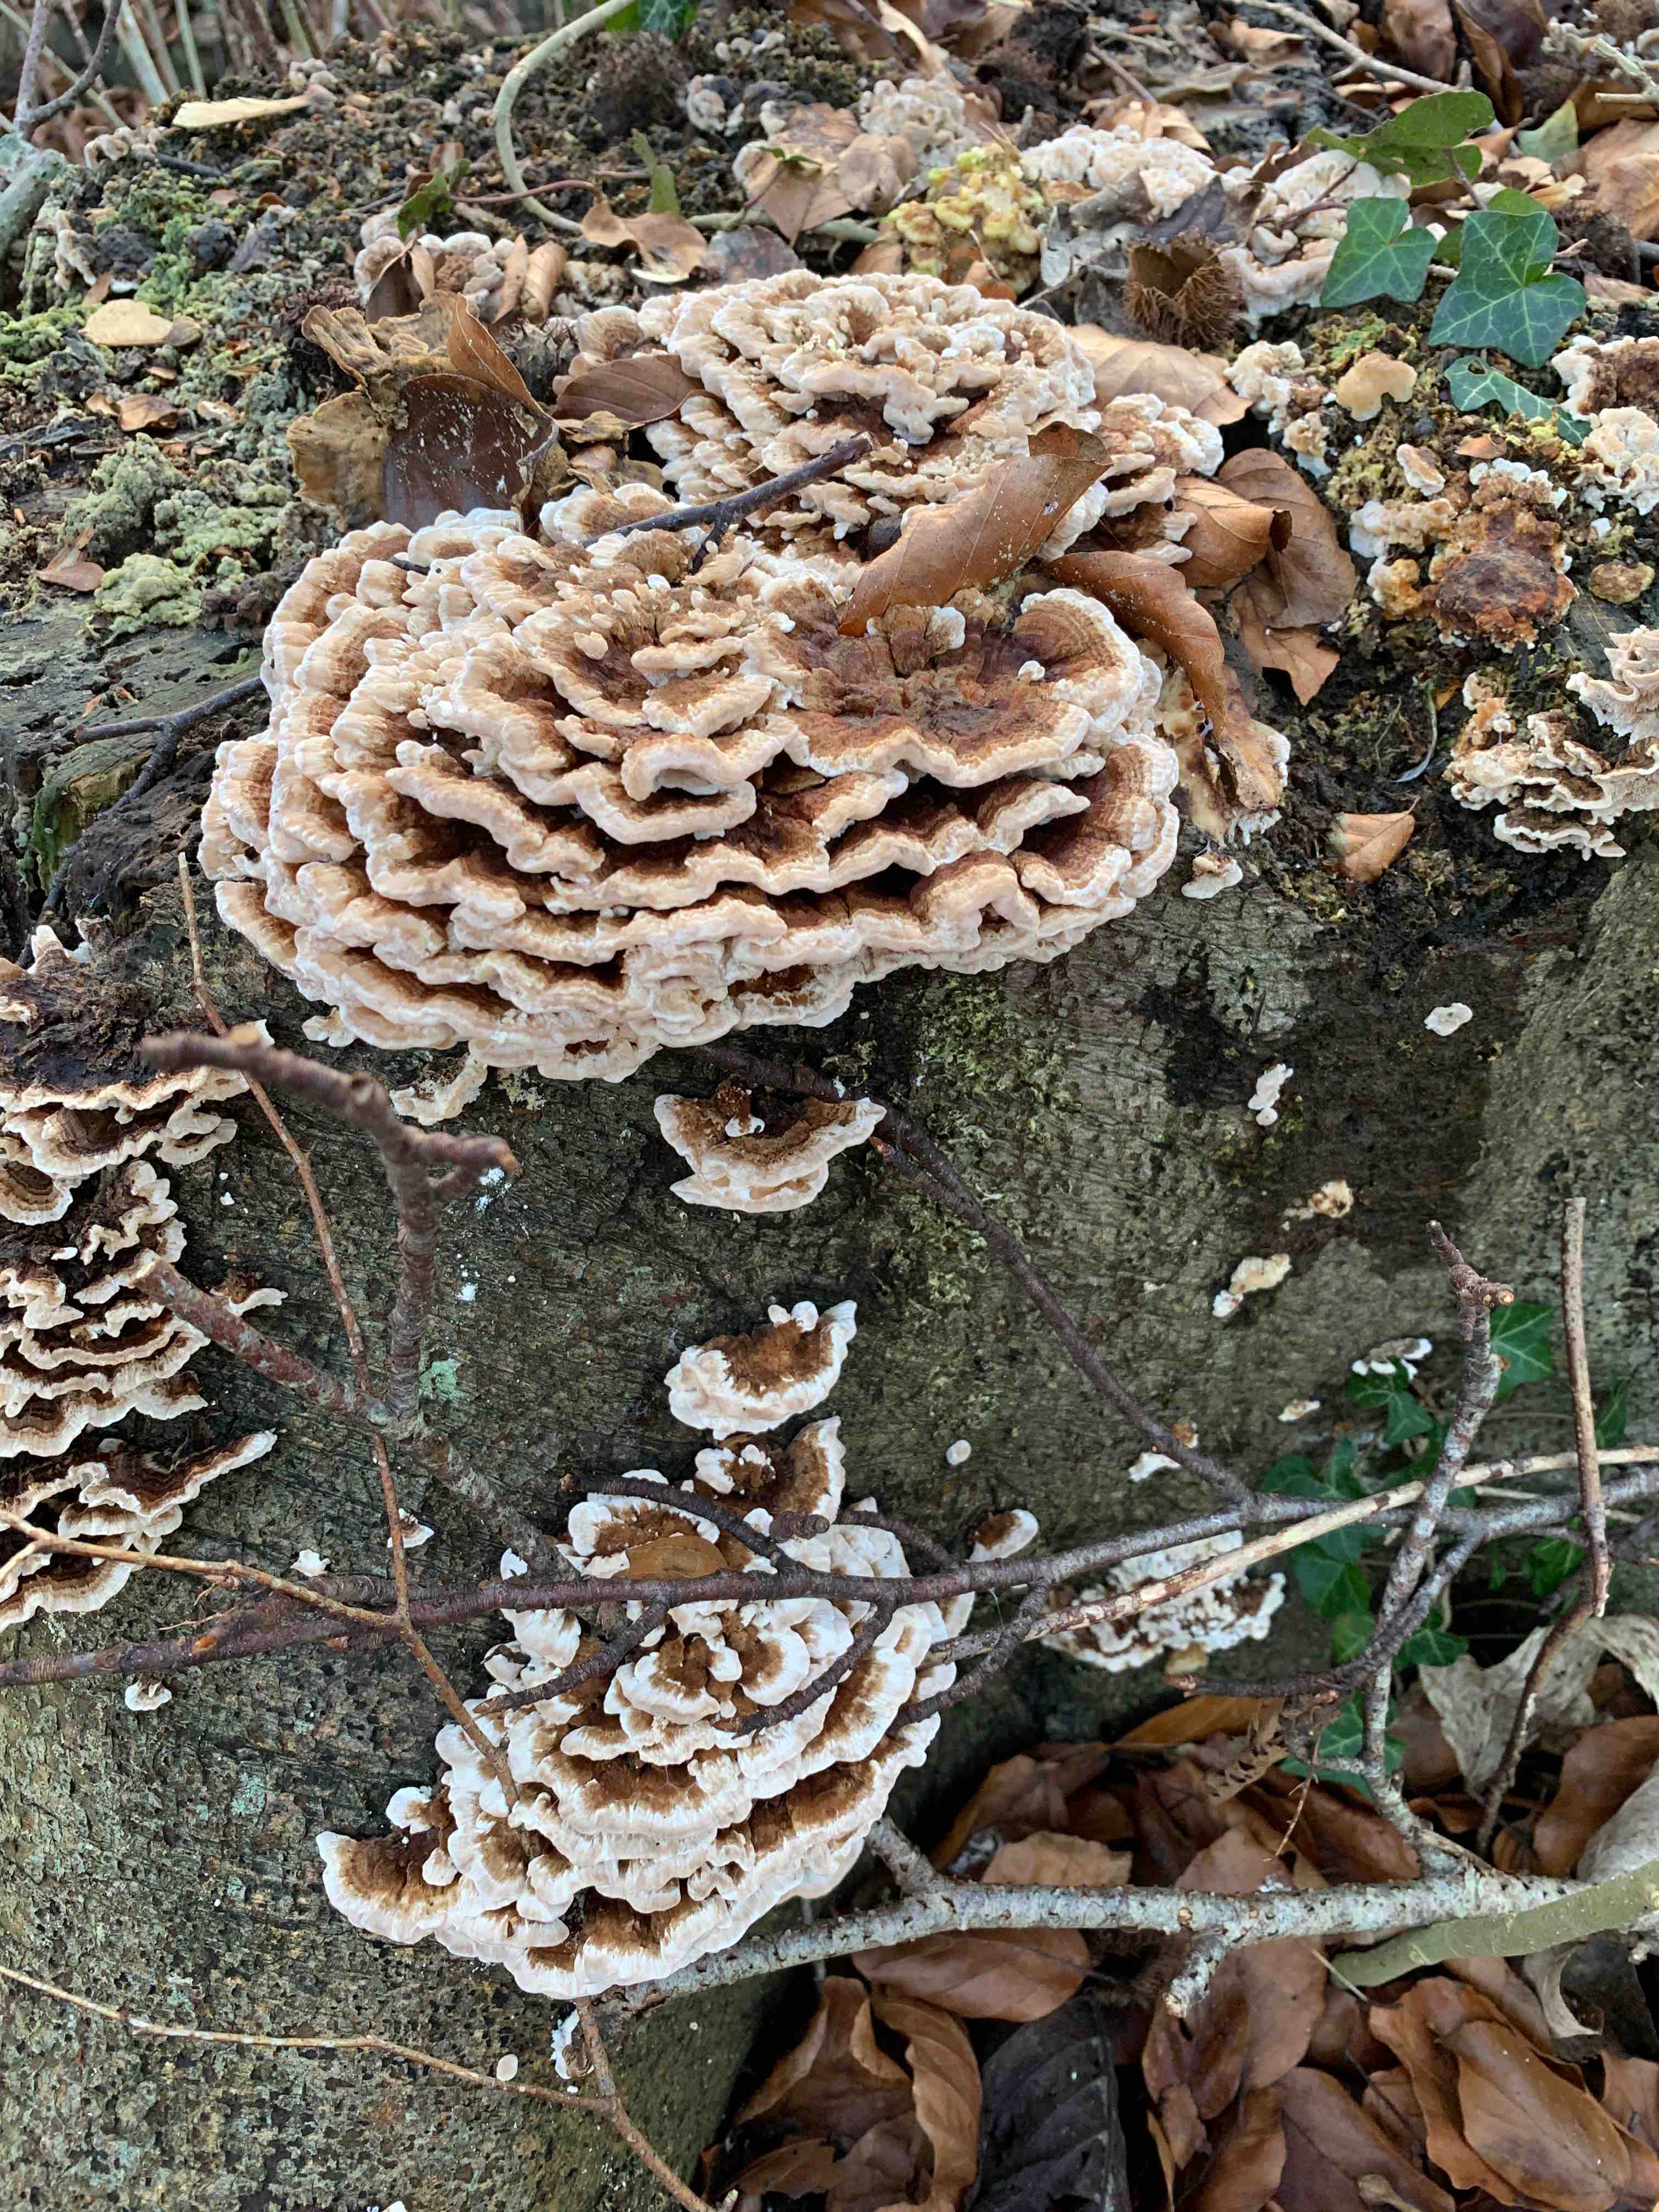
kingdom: Fungi
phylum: Basidiomycota
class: Agaricomycetes
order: Polyporales
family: Polyporaceae
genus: Trametes
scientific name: Trametes versicolor
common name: broget læderporesvamp
